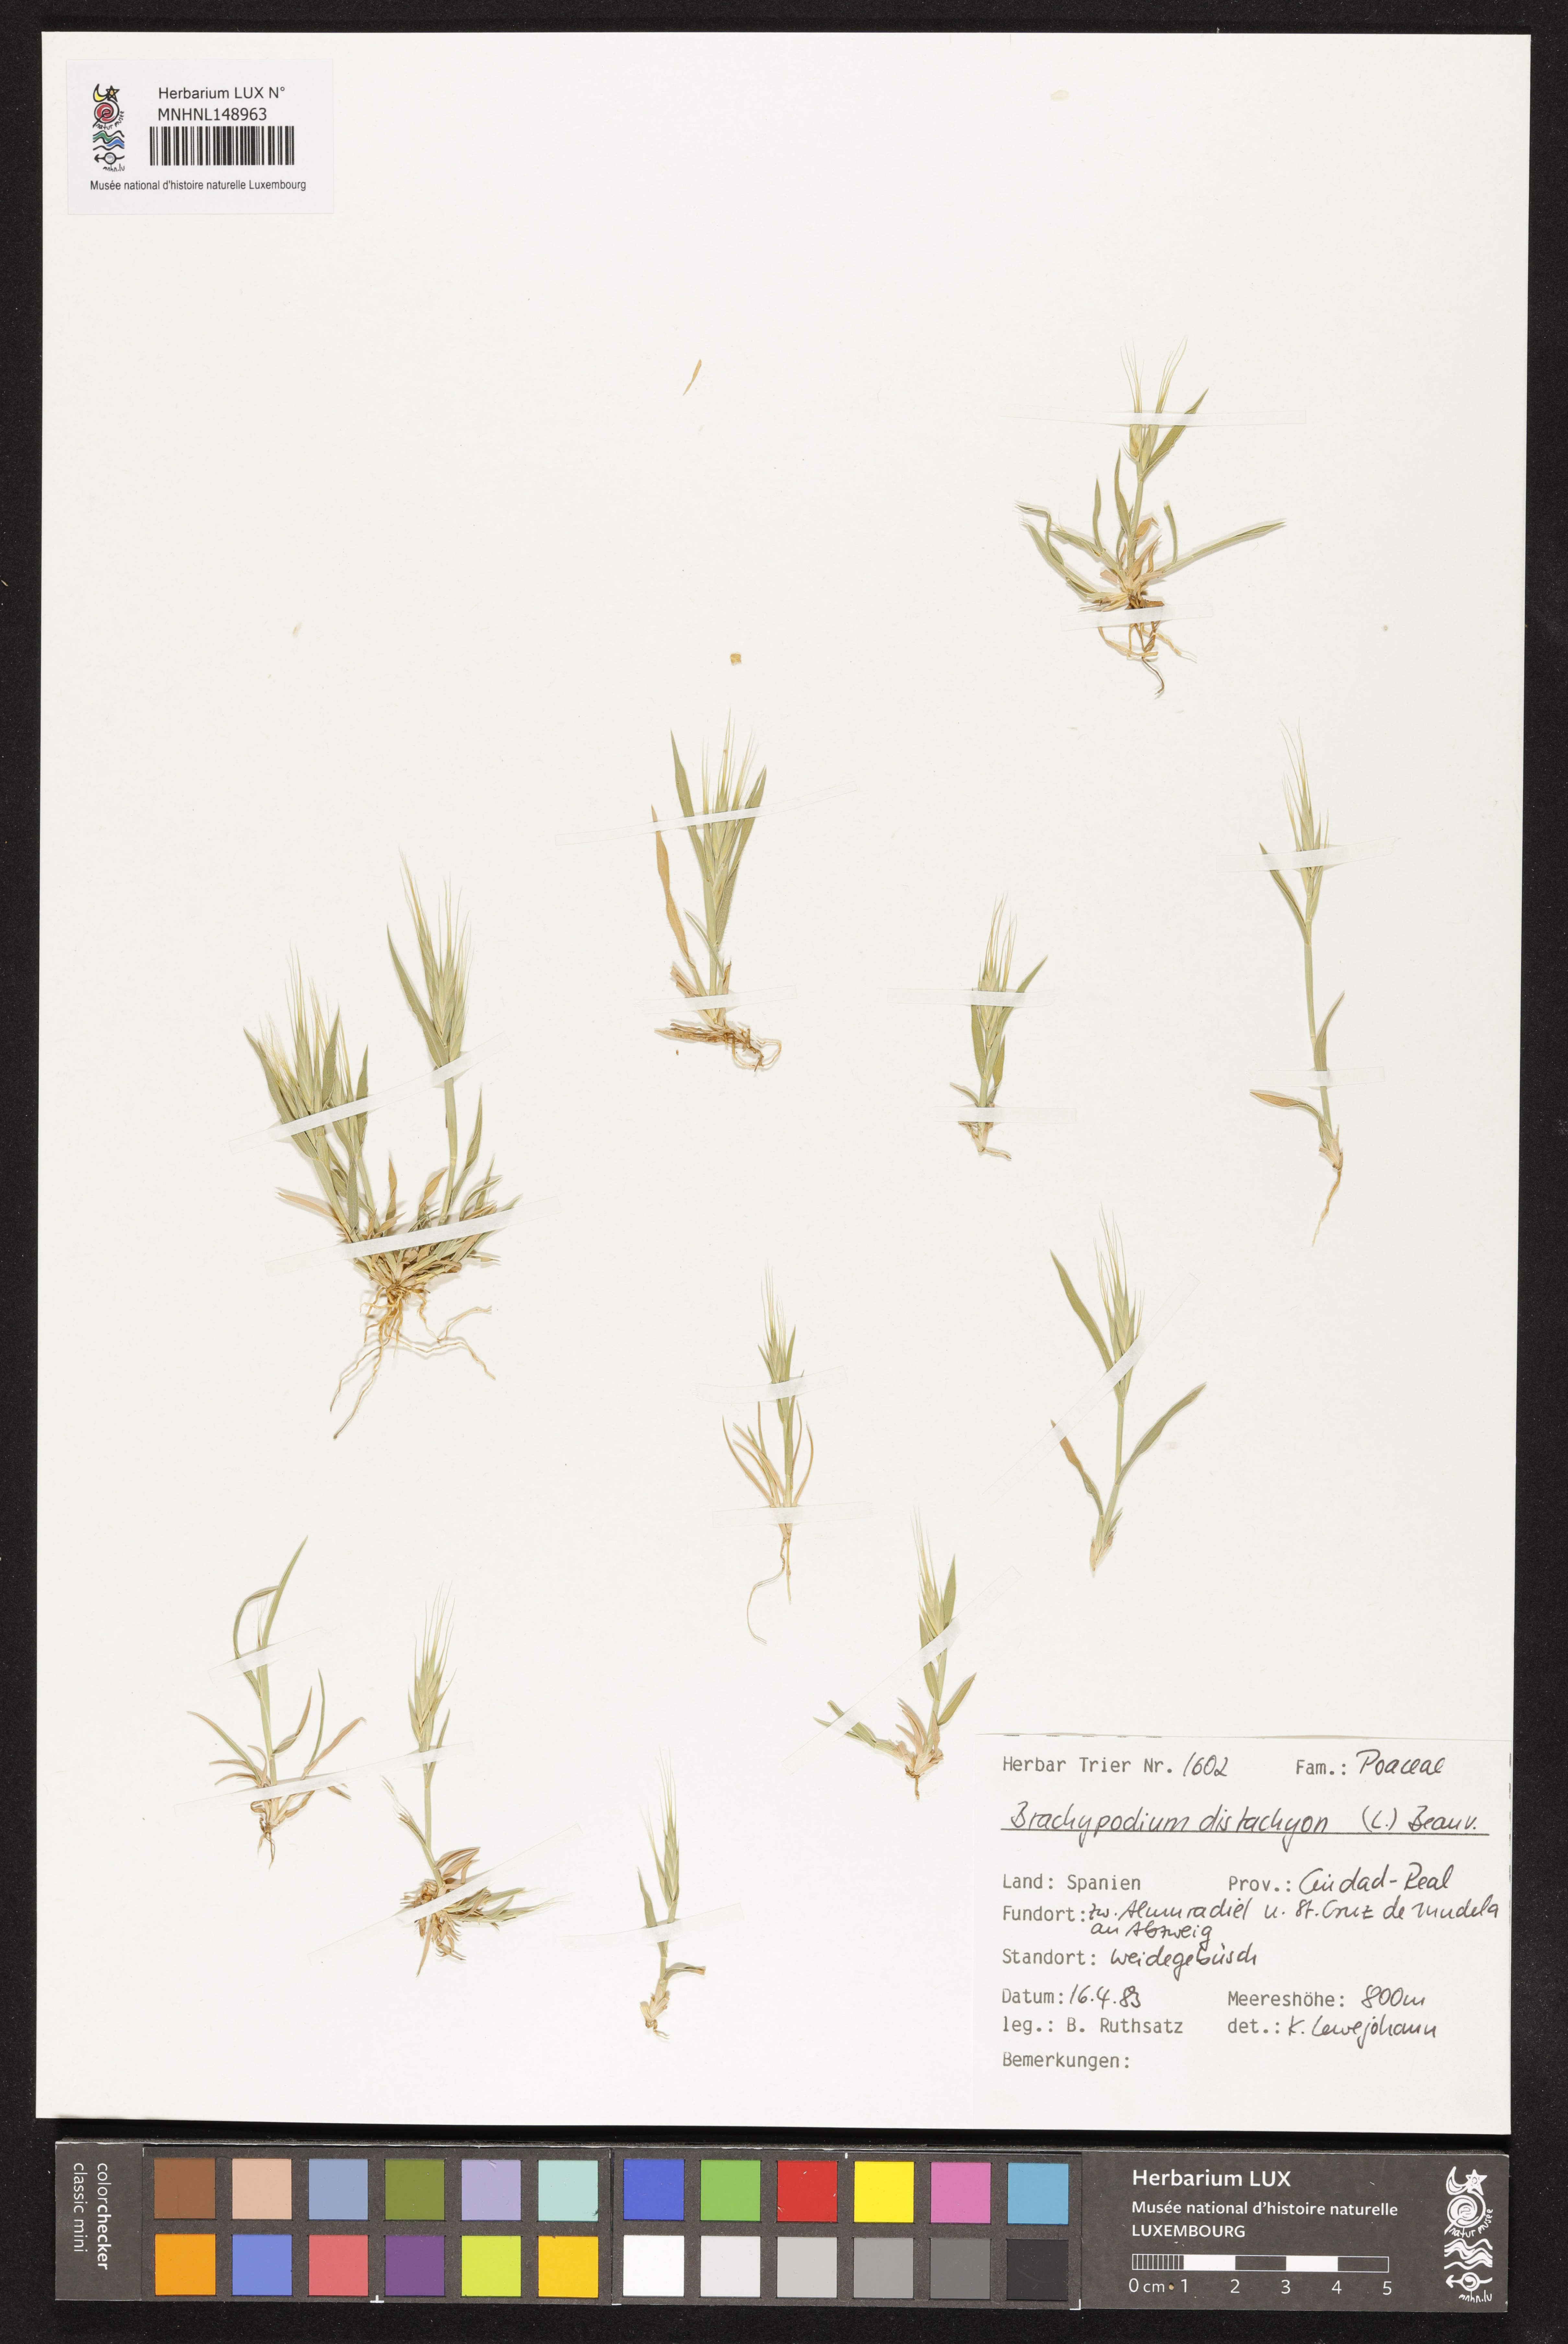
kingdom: Plantae
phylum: Tracheophyta
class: Liliopsida
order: Poales
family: Poaceae
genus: Brachypodium
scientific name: Brachypodium distachyon
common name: Stiff brome
